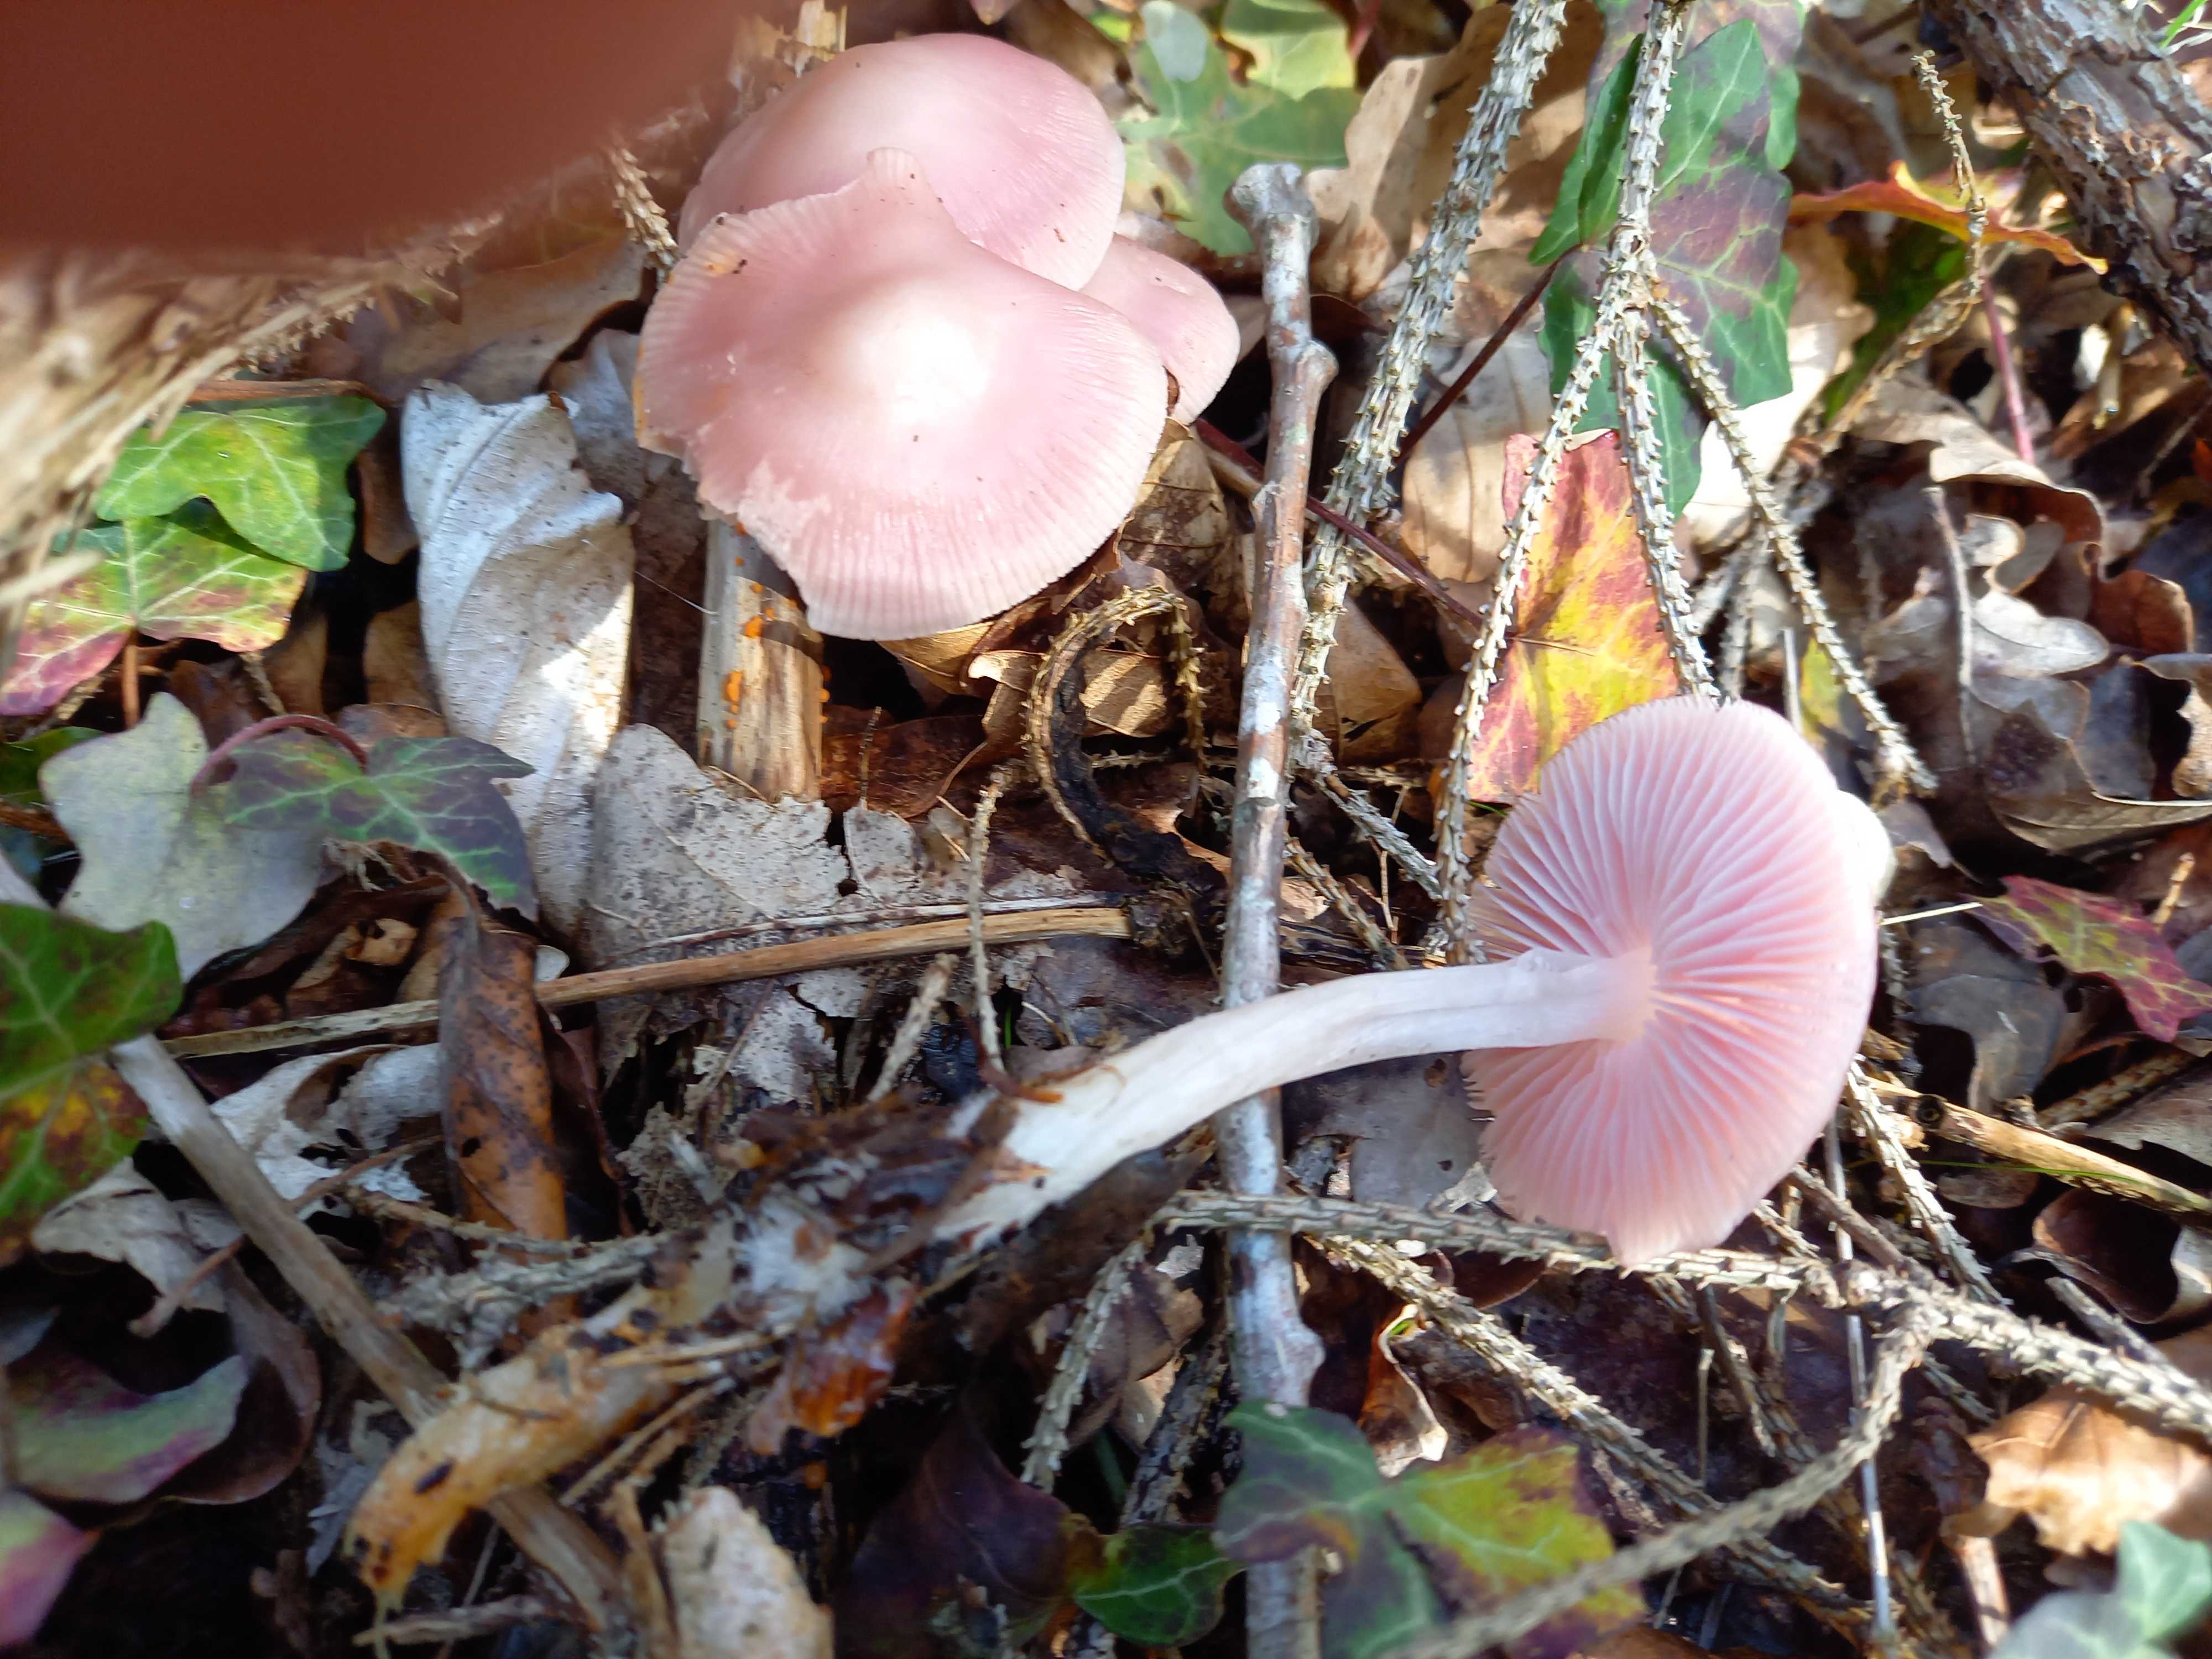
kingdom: Fungi
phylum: Basidiomycota
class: Agaricomycetes
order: Agaricales
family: Mycenaceae
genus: Mycena
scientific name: Mycena rosea
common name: rosa huesvamp
